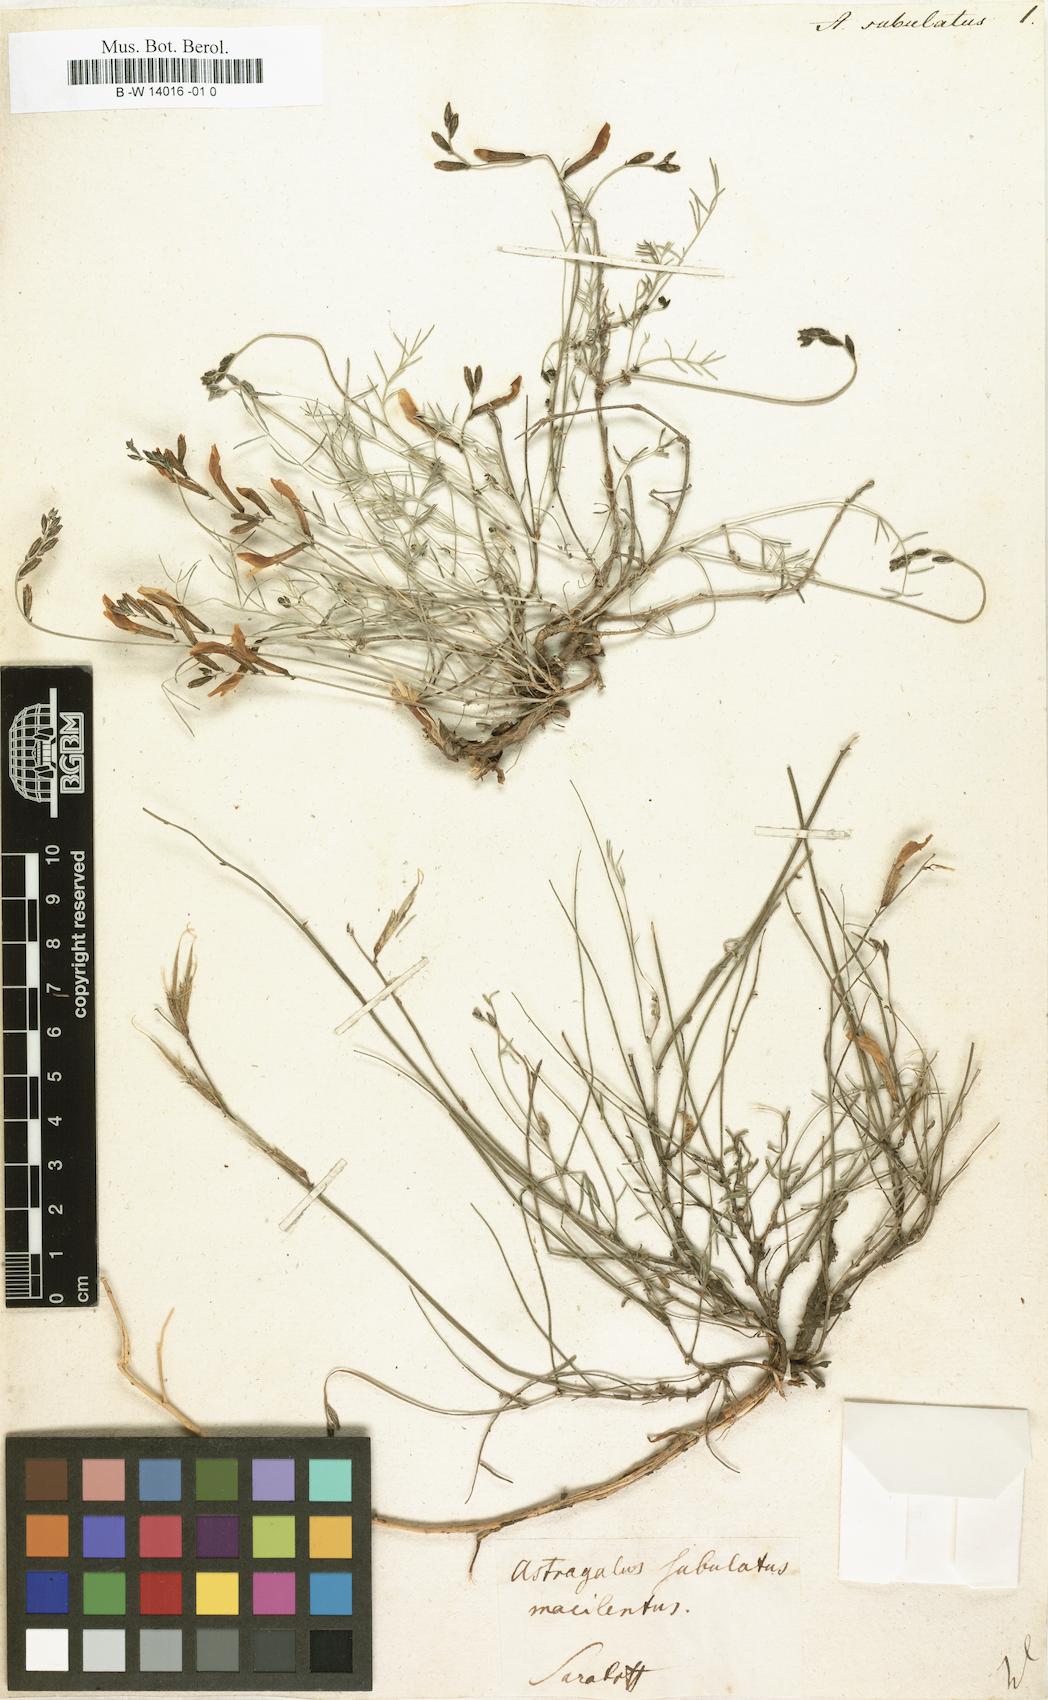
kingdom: Plantae
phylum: Tracheophyta
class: Magnoliopsida
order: Fabales
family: Fabaceae
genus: Astragalus
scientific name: Astragalus anfractuosus
